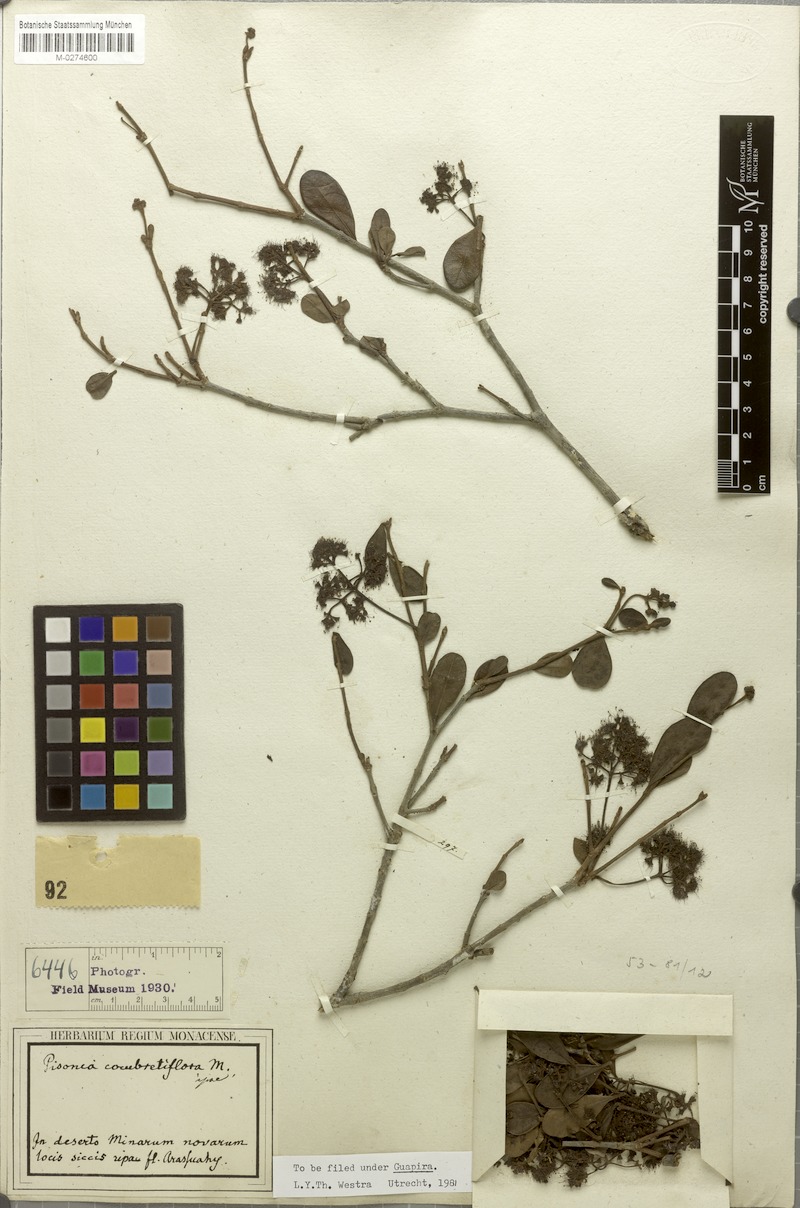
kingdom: Plantae
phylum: Tracheophyta
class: Magnoliopsida
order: Caryophyllales
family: Nyctaginaceae
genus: Guapira
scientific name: Guapira combretiflora
